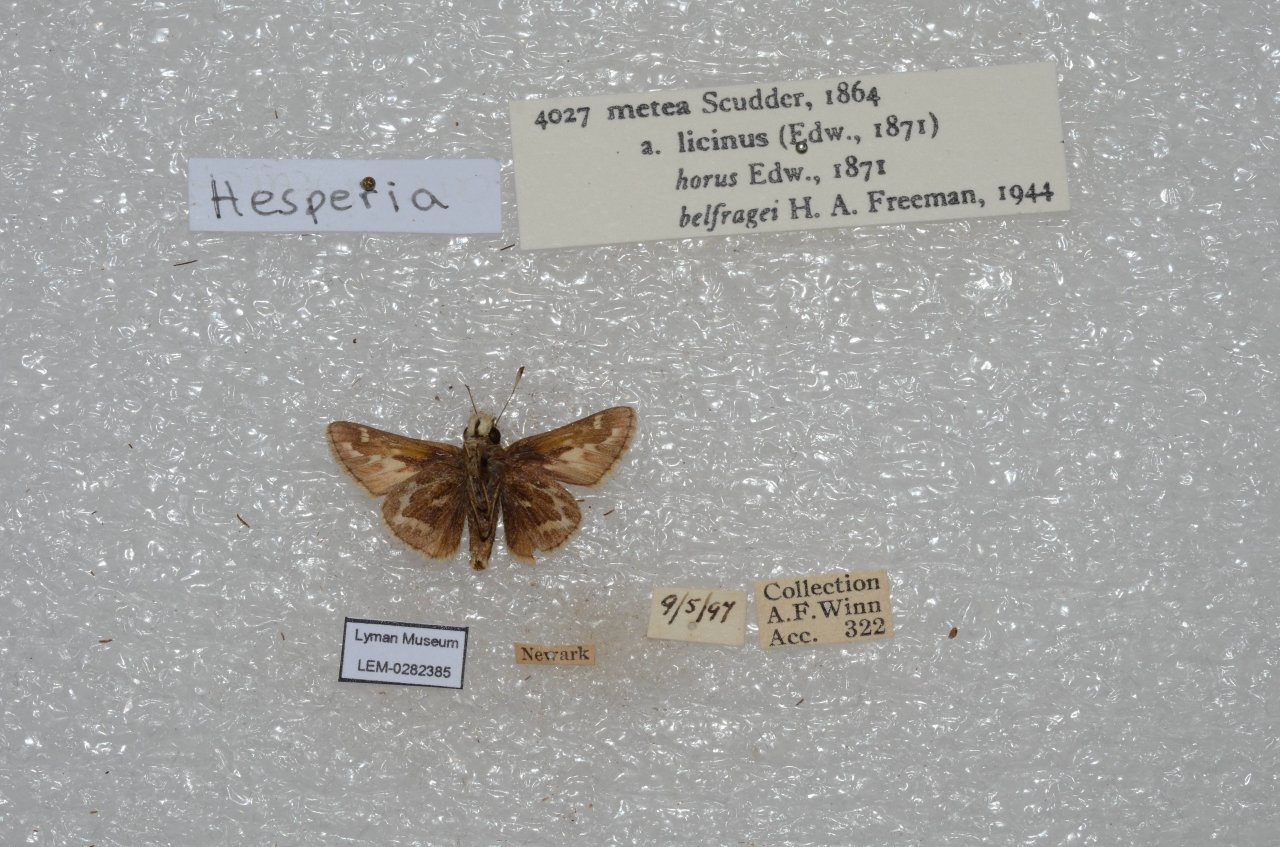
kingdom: Animalia
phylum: Arthropoda
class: Insecta
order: Lepidoptera
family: Hesperiidae
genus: Hesperia
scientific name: Hesperia metea
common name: Cobweb Skipper
